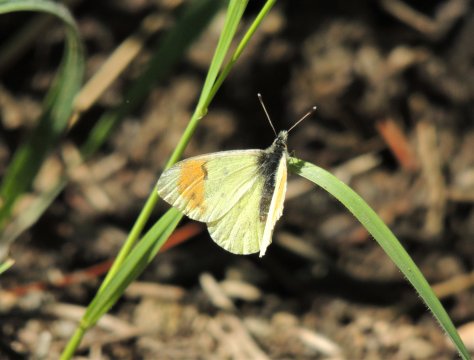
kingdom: Animalia
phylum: Arthropoda
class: Insecta
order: Lepidoptera
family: Pieridae
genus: Anthocharis
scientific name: Anthocharis julia
